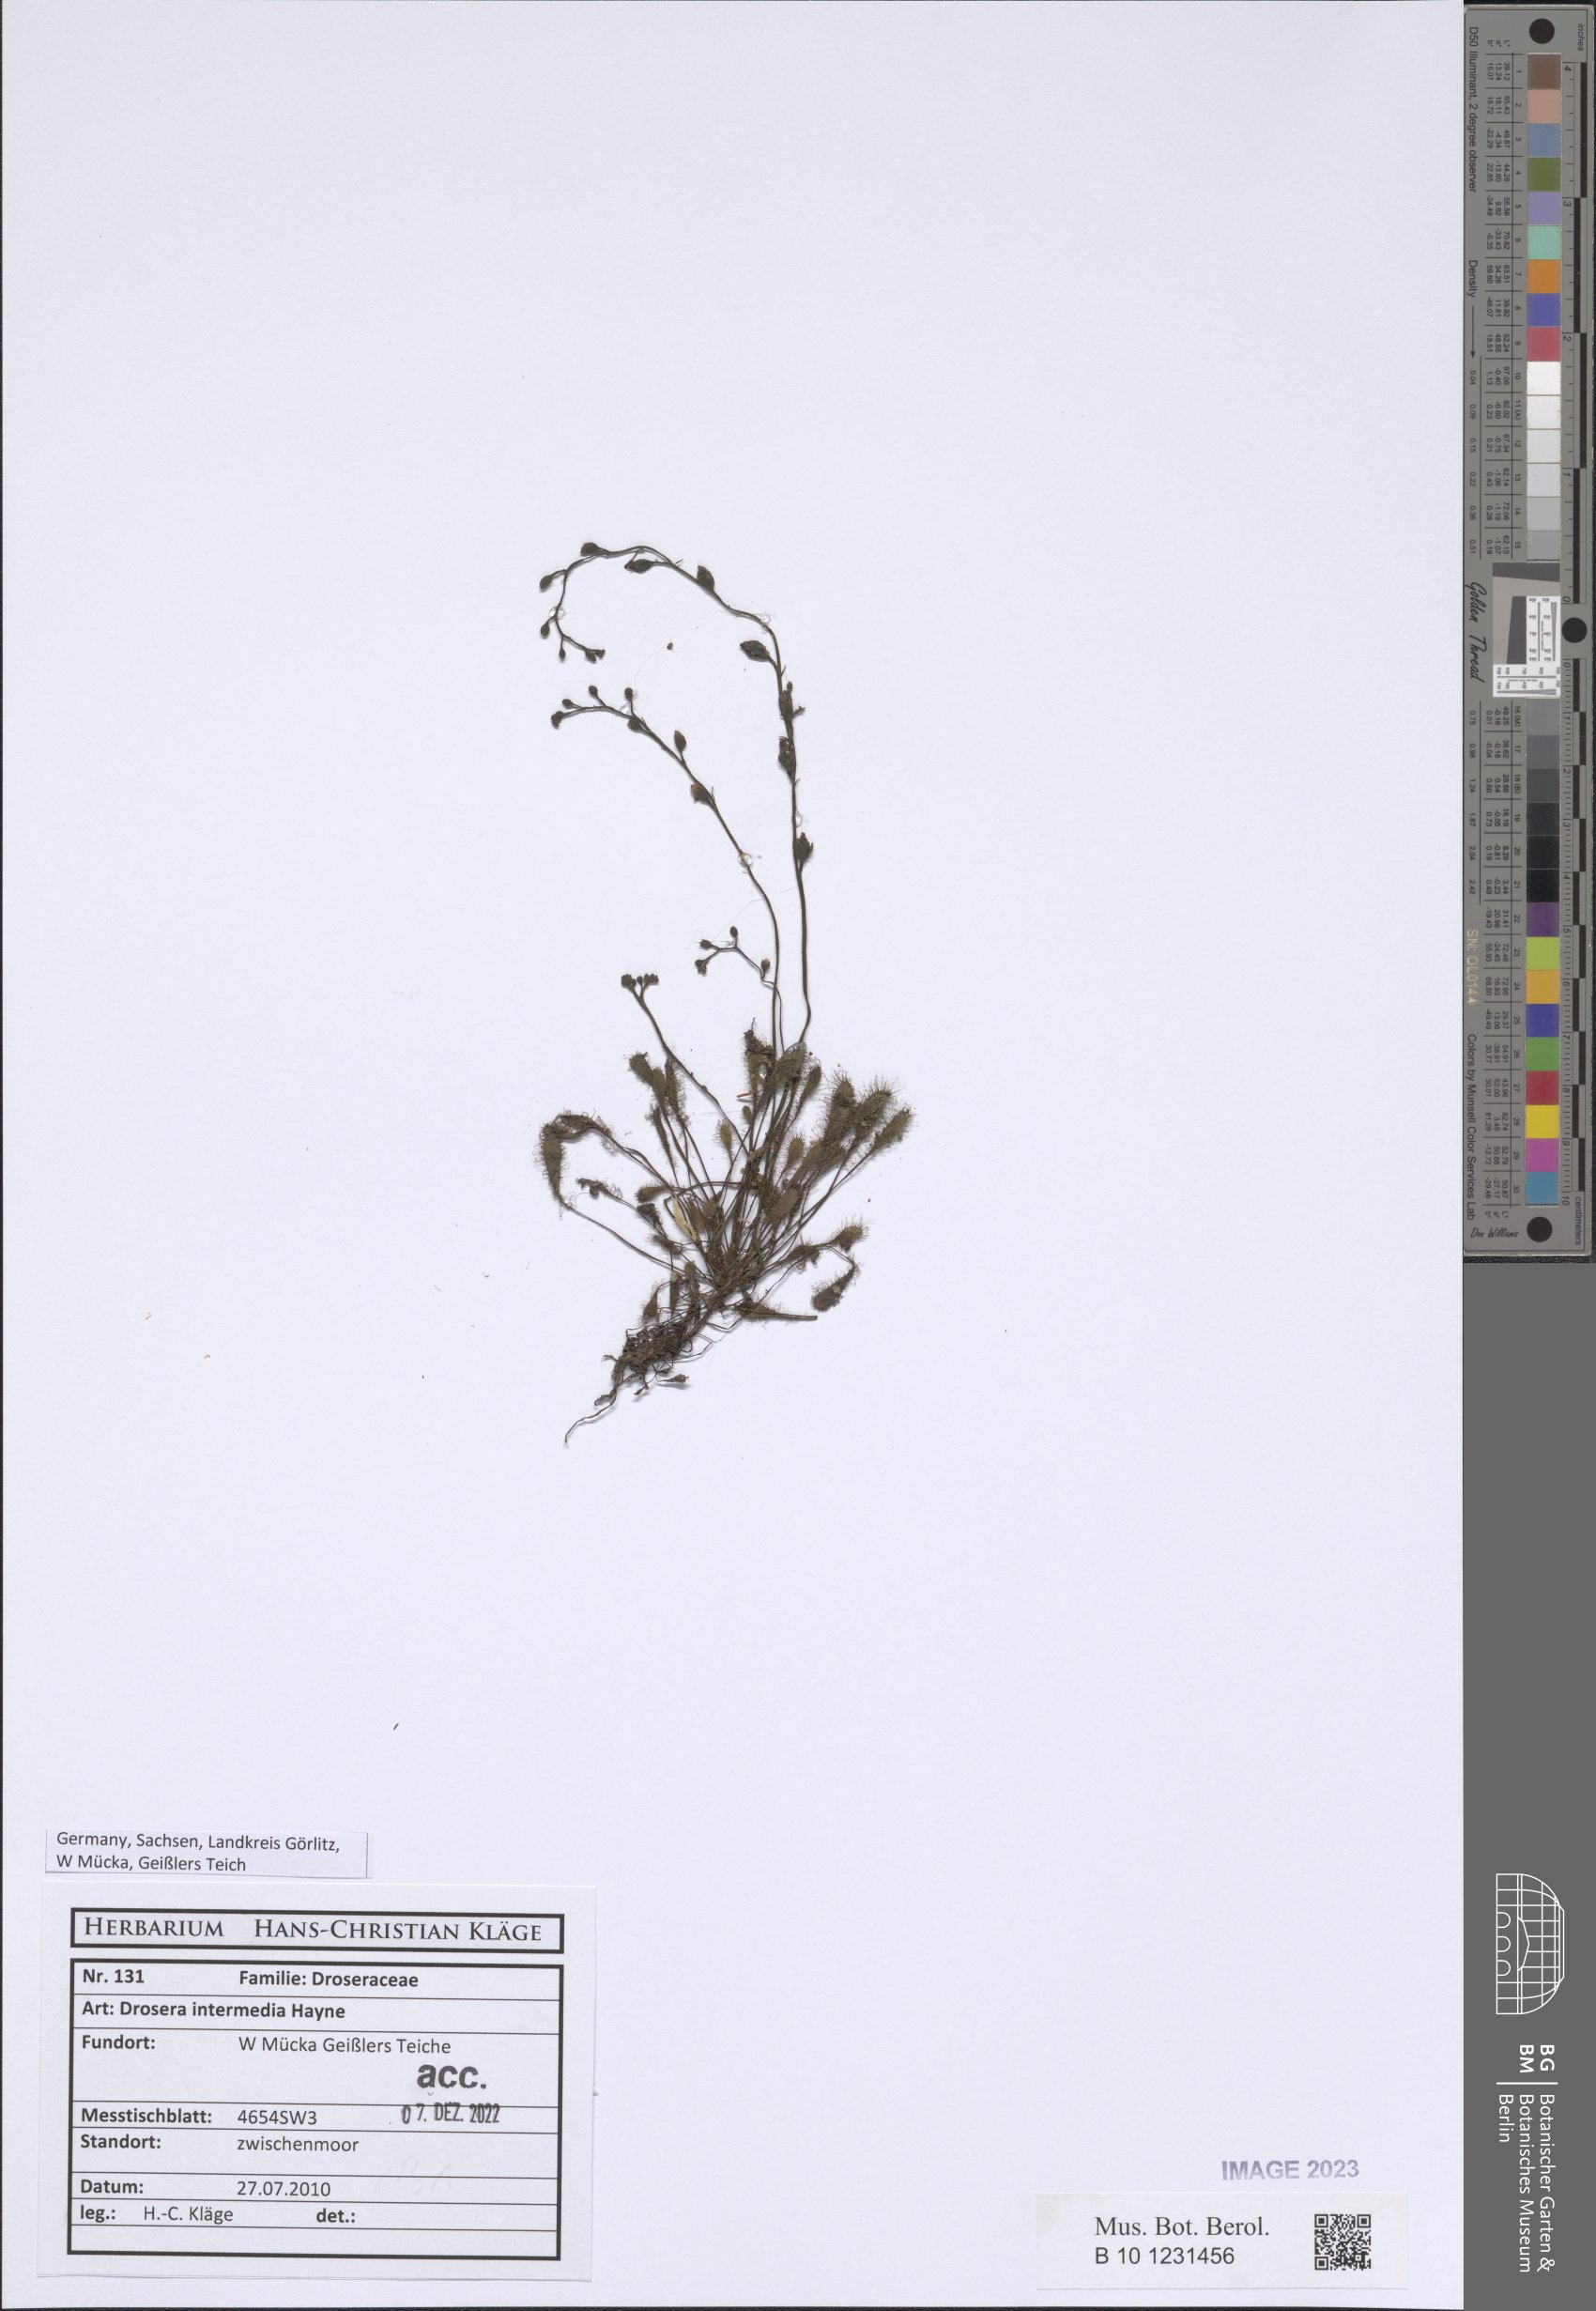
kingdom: Plantae
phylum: Tracheophyta
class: Magnoliopsida
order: Caryophyllales
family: Droseraceae
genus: Drosera
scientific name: Drosera intermedia
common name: Oblong-leaved sundew
